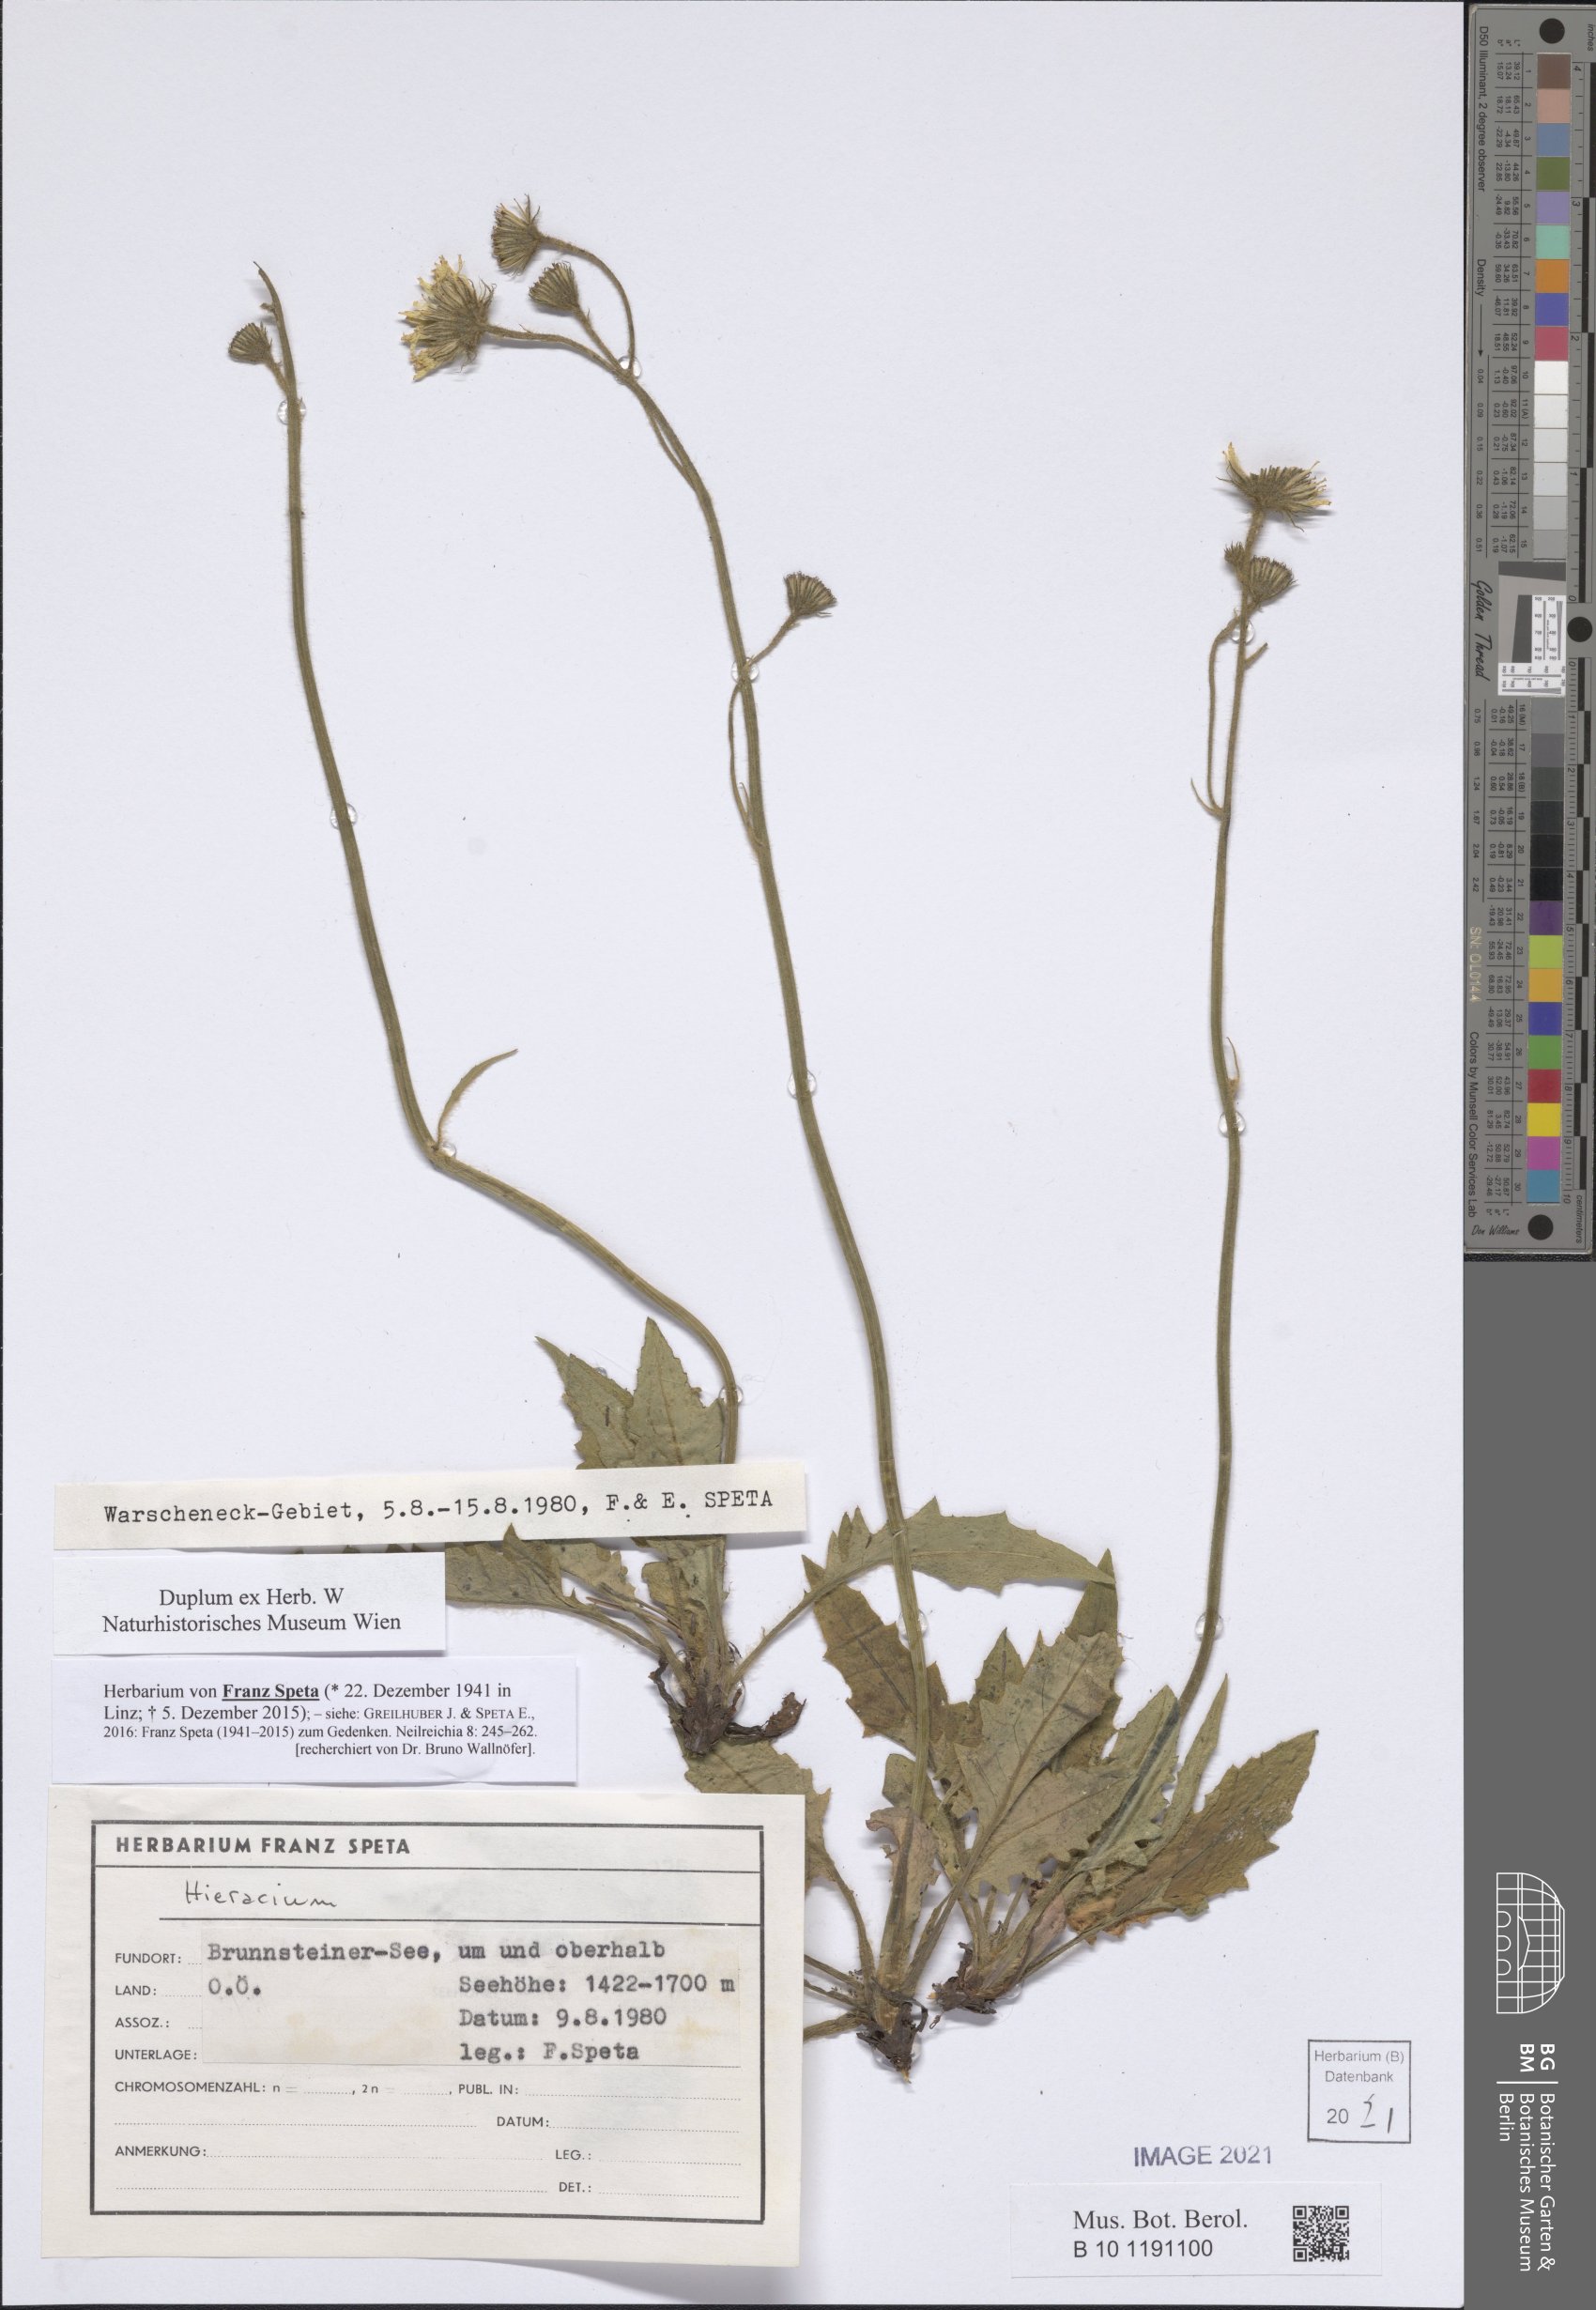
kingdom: Plantae
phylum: Tracheophyta
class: Magnoliopsida
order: Asterales
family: Asteraceae
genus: Hieracium
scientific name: Hieracium
